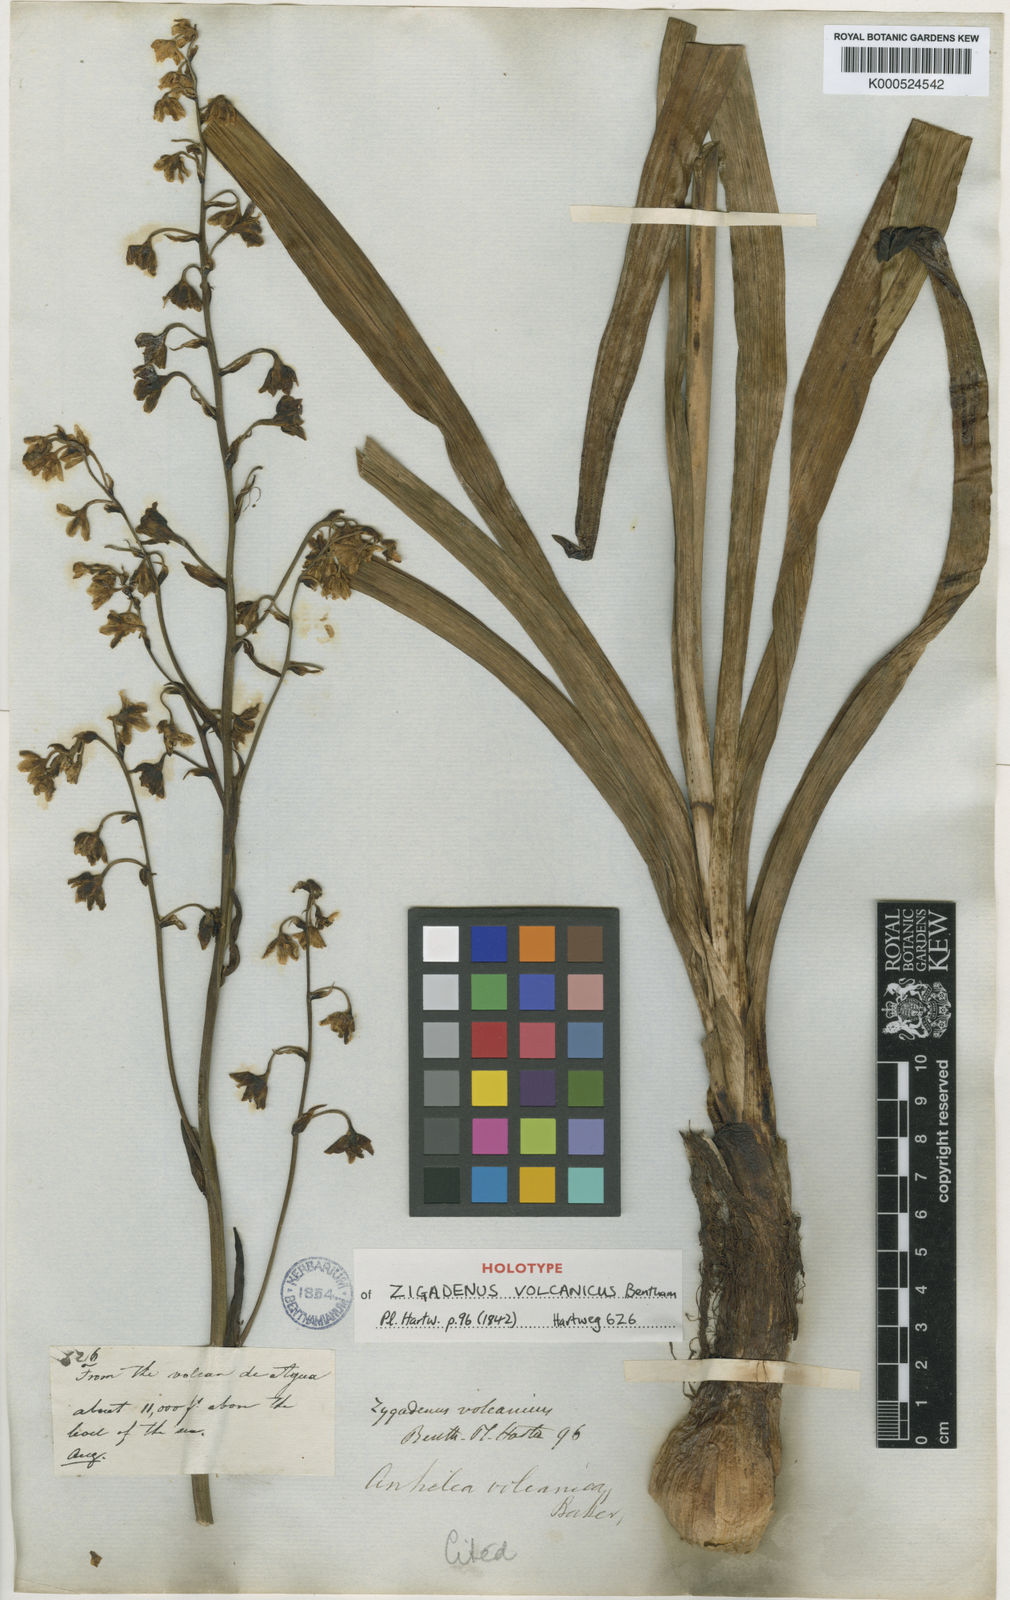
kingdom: Plantae
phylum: Tracheophyta
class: Liliopsida
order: Liliales
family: Melanthiaceae
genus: Anticlea
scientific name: Anticlea volcanica
